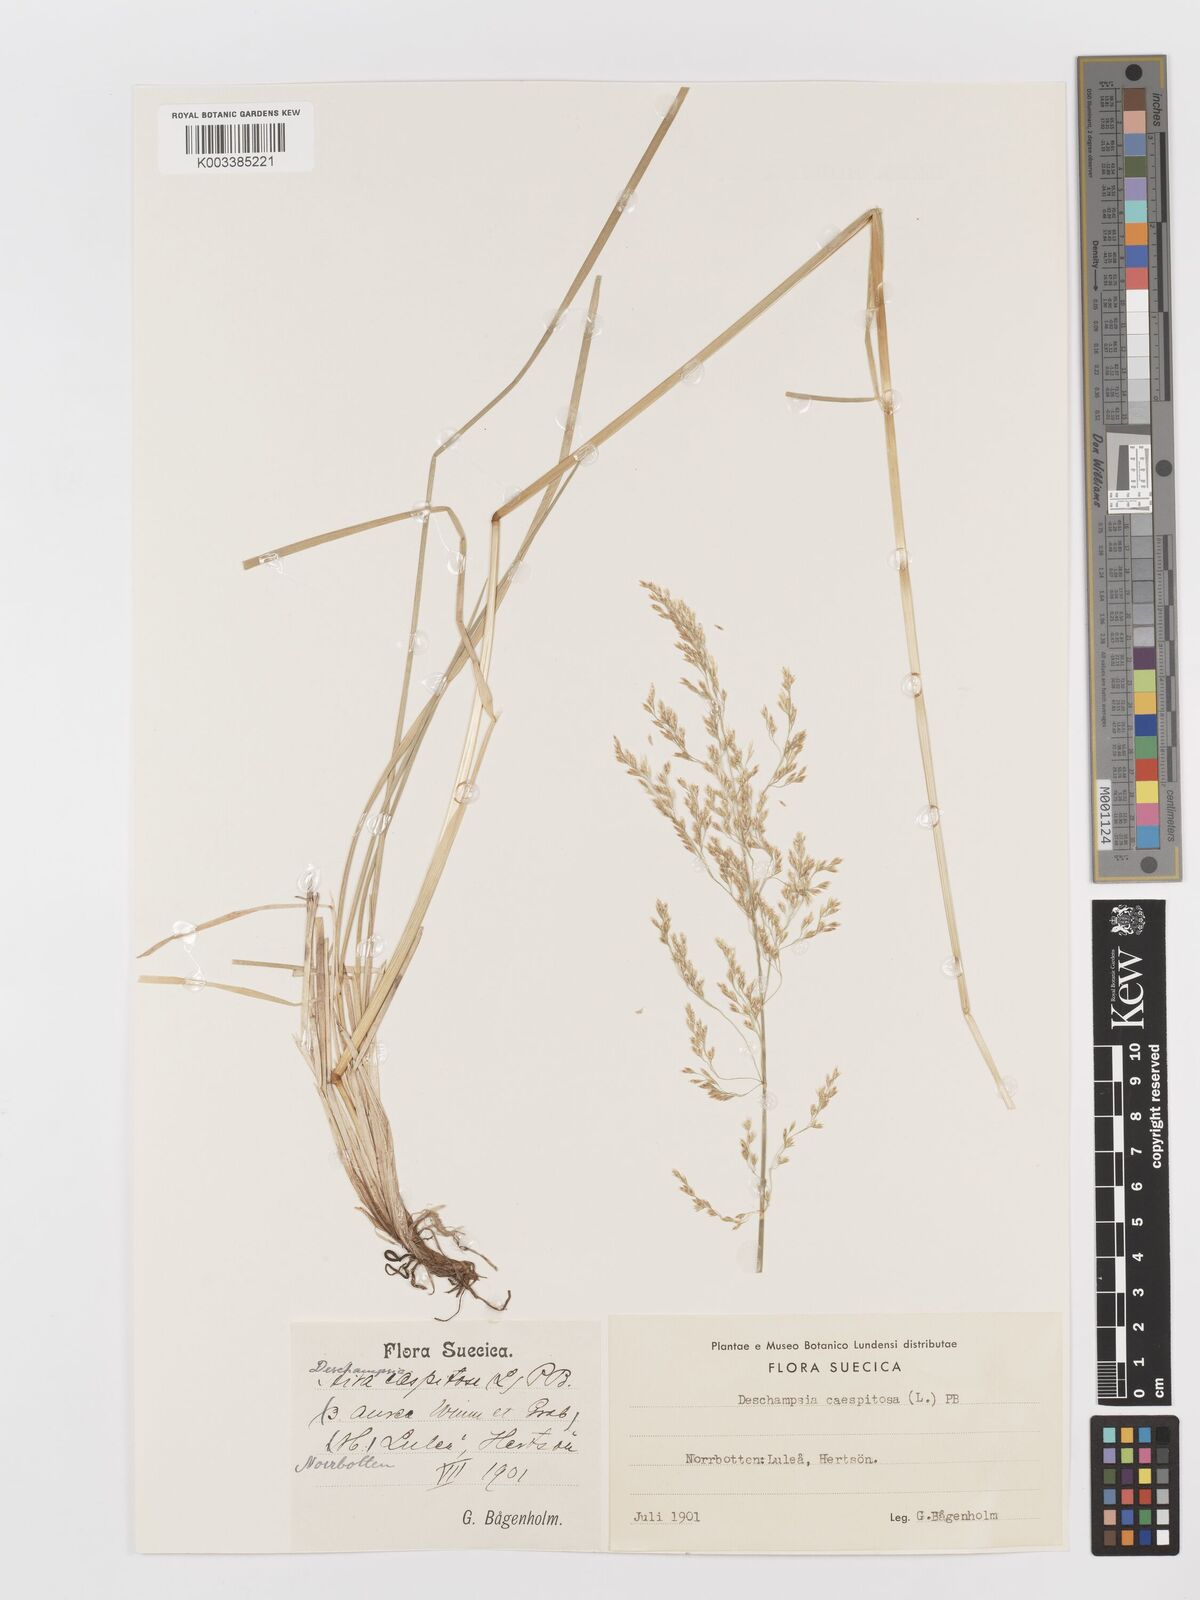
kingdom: Plantae
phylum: Tracheophyta
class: Liliopsida
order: Poales
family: Poaceae
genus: Deschampsia
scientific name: Deschampsia cespitosa
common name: Tufted hair-grass
